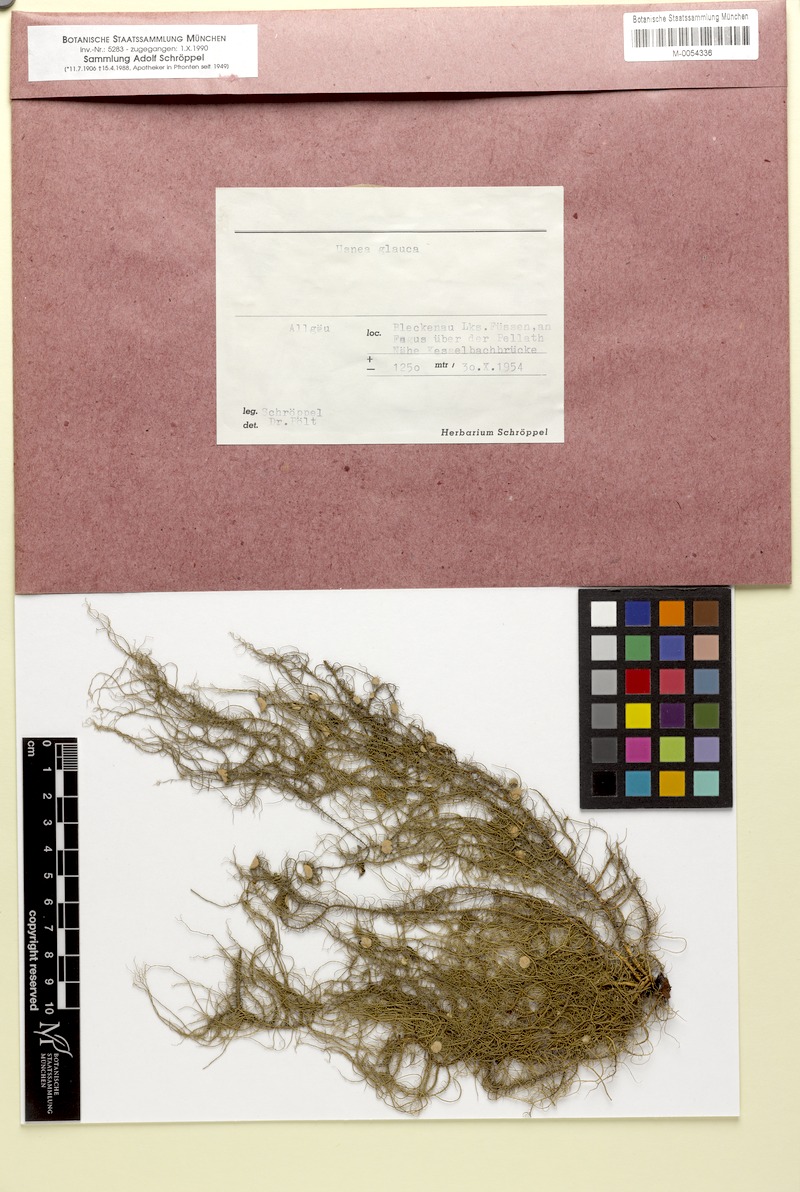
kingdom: Fungi
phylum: Ascomycota
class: Lecanoromycetes
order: Lecanorales
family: Parmeliaceae
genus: Usnea
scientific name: Usnea glauca
